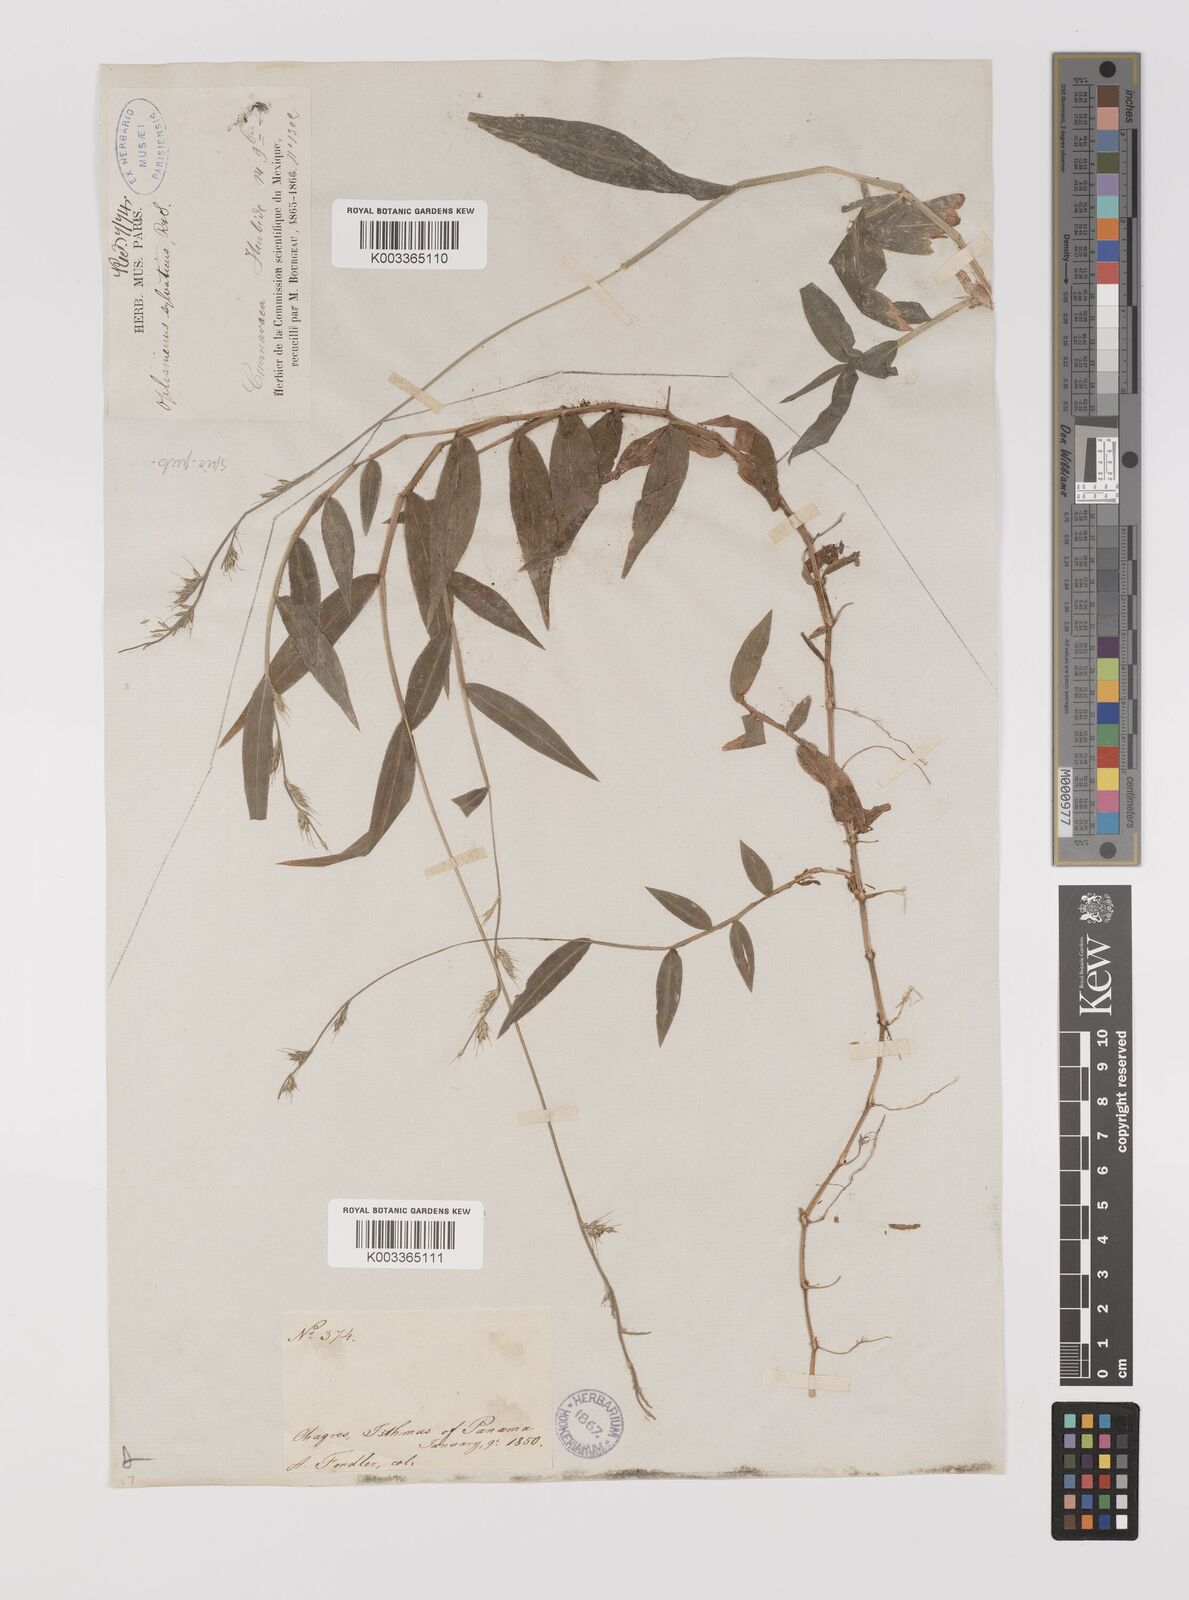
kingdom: Plantae
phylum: Tracheophyta
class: Liliopsida
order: Poales
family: Poaceae
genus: Oplismenus
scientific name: Oplismenus hirtellus
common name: Basketgrass
